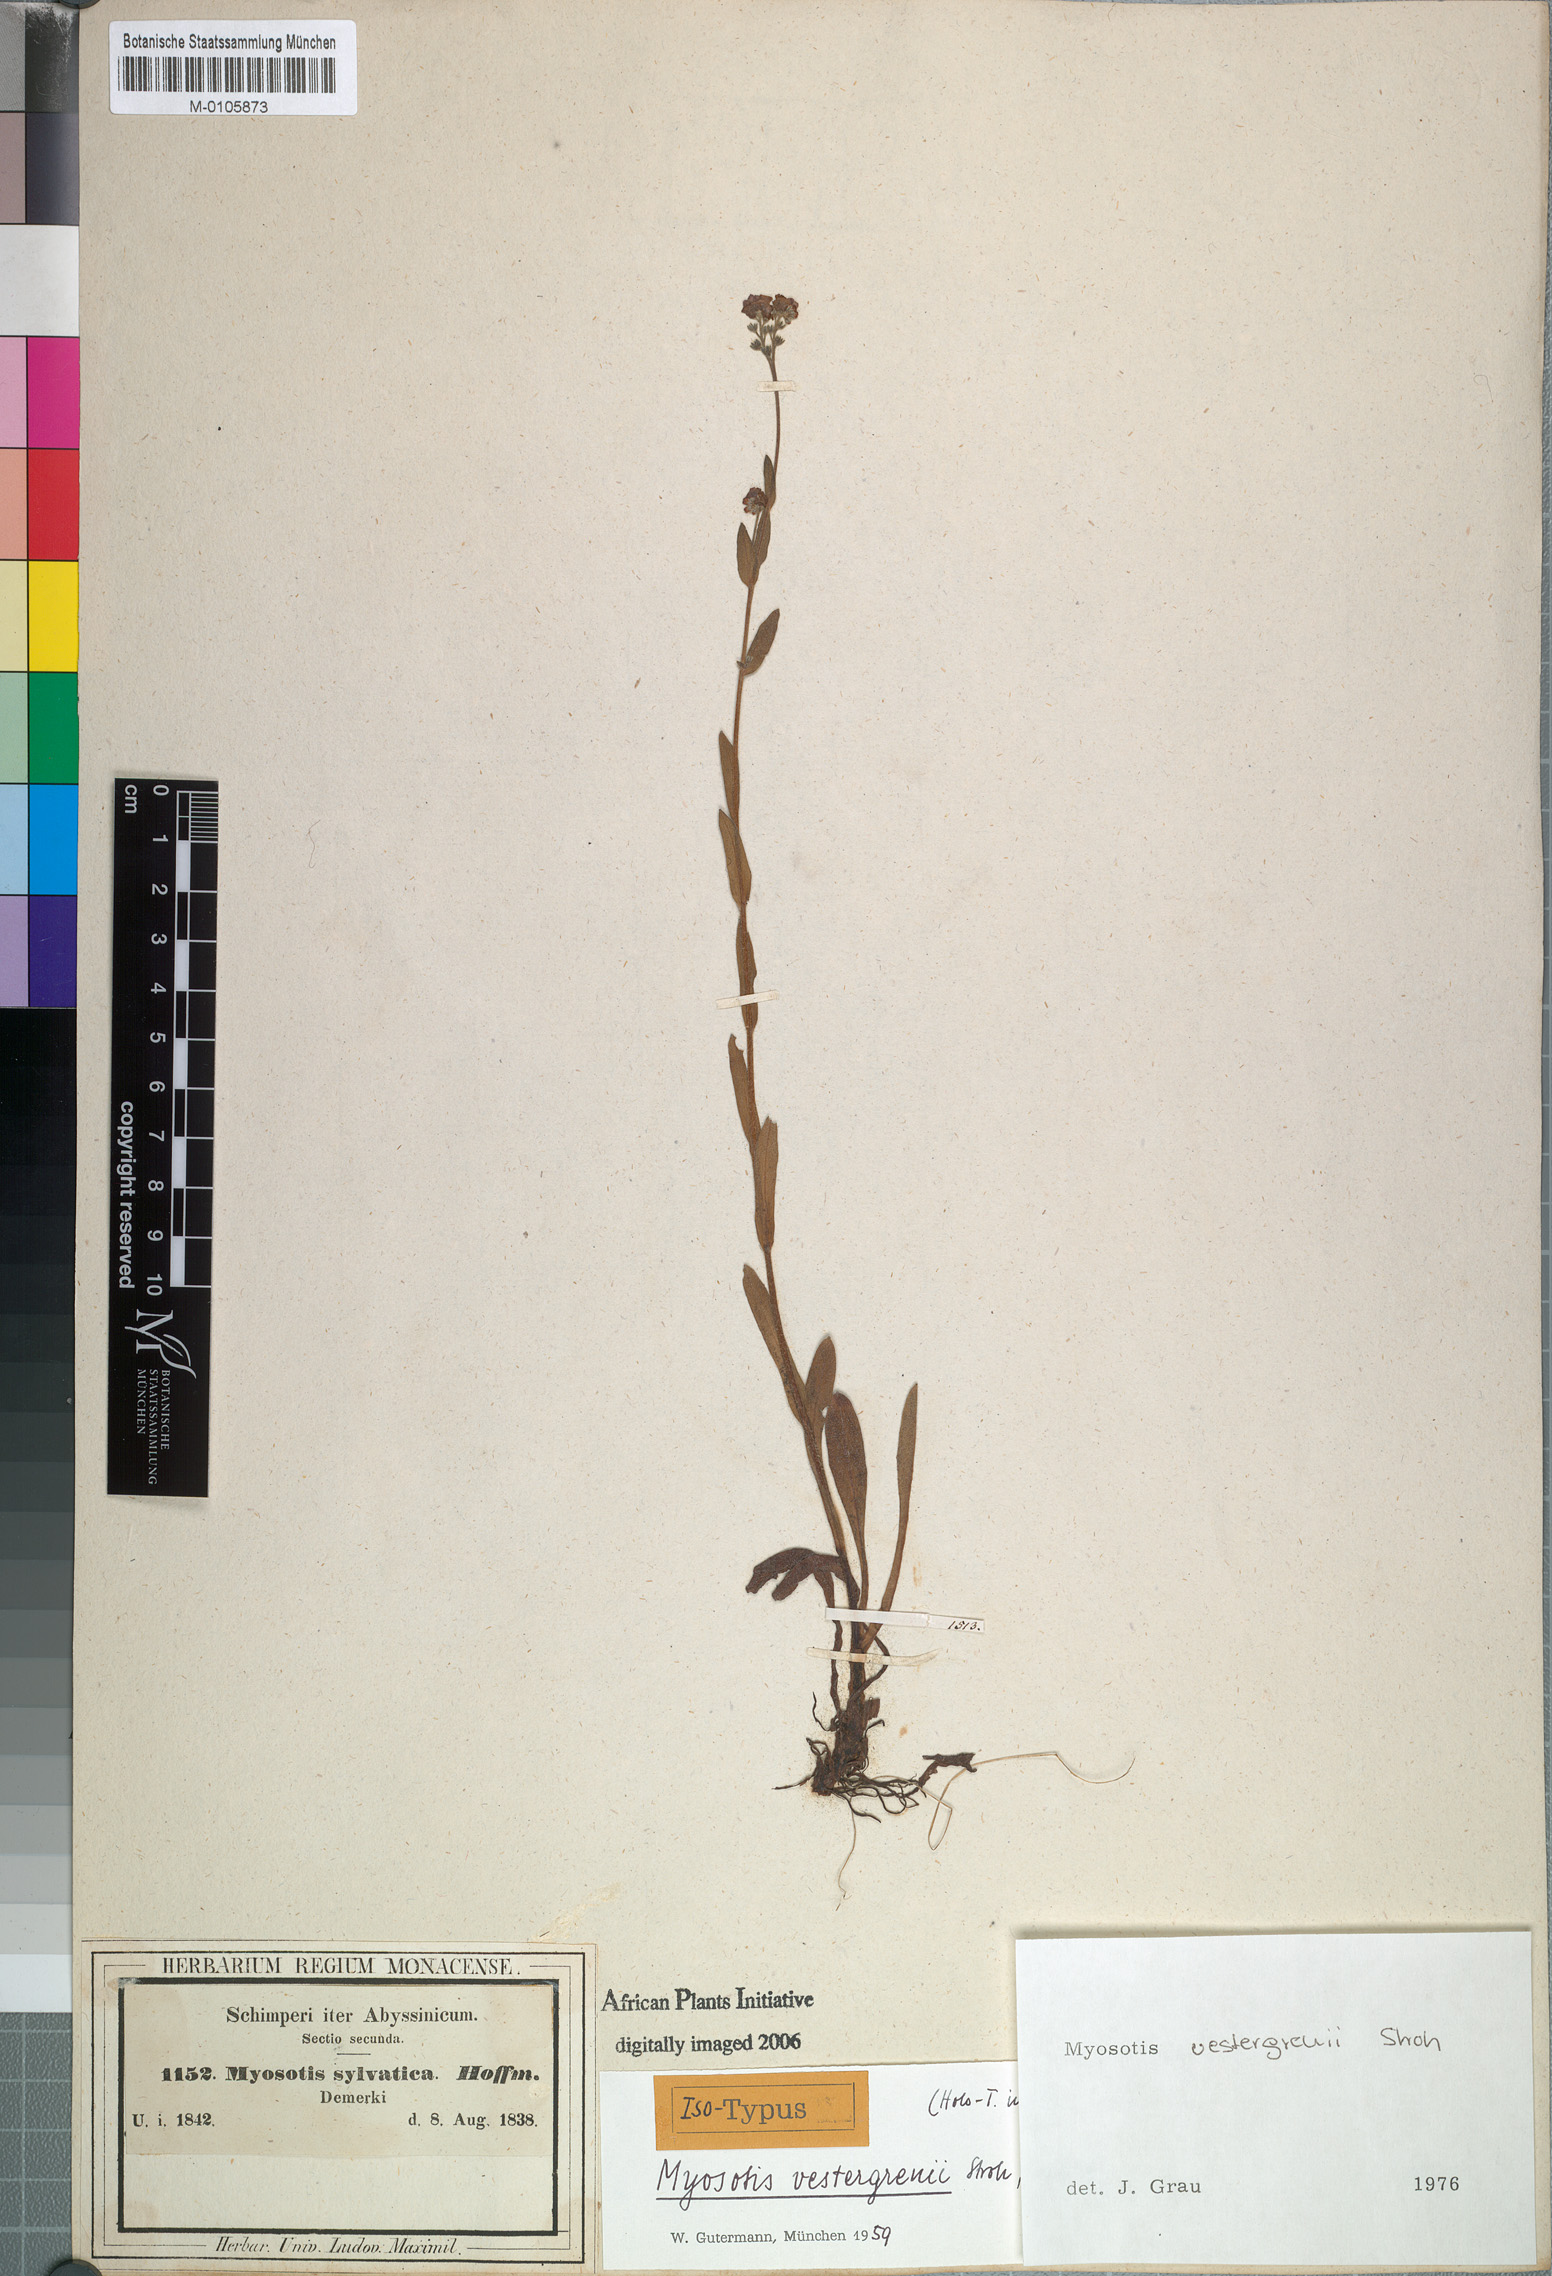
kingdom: Plantae
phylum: Tracheophyta
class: Magnoliopsida
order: Boraginales
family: Boraginaceae
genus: Myosotis
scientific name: Myosotis vestergrenii
